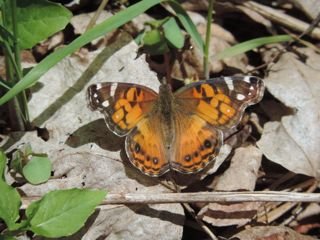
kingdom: Animalia
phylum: Arthropoda
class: Insecta
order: Lepidoptera
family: Nymphalidae
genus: Vanessa
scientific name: Vanessa virginiensis
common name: American Lady
